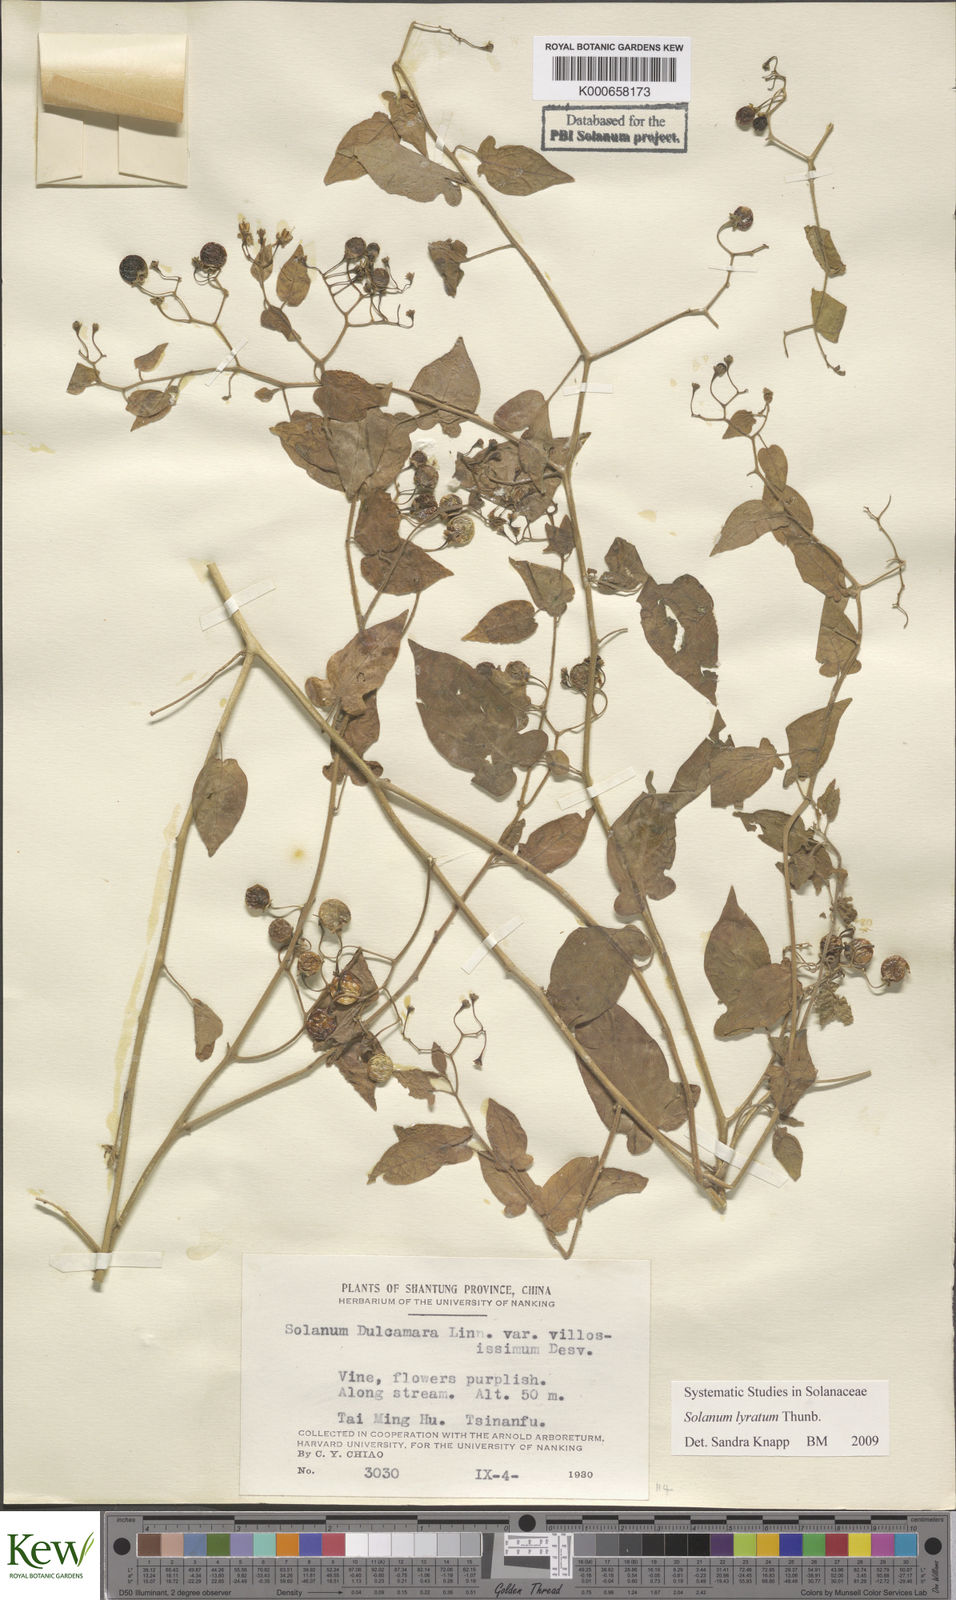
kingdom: Plantae
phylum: Tracheophyta
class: Magnoliopsida
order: Solanales
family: Solanaceae
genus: Solanum
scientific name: Solanum lyratum
